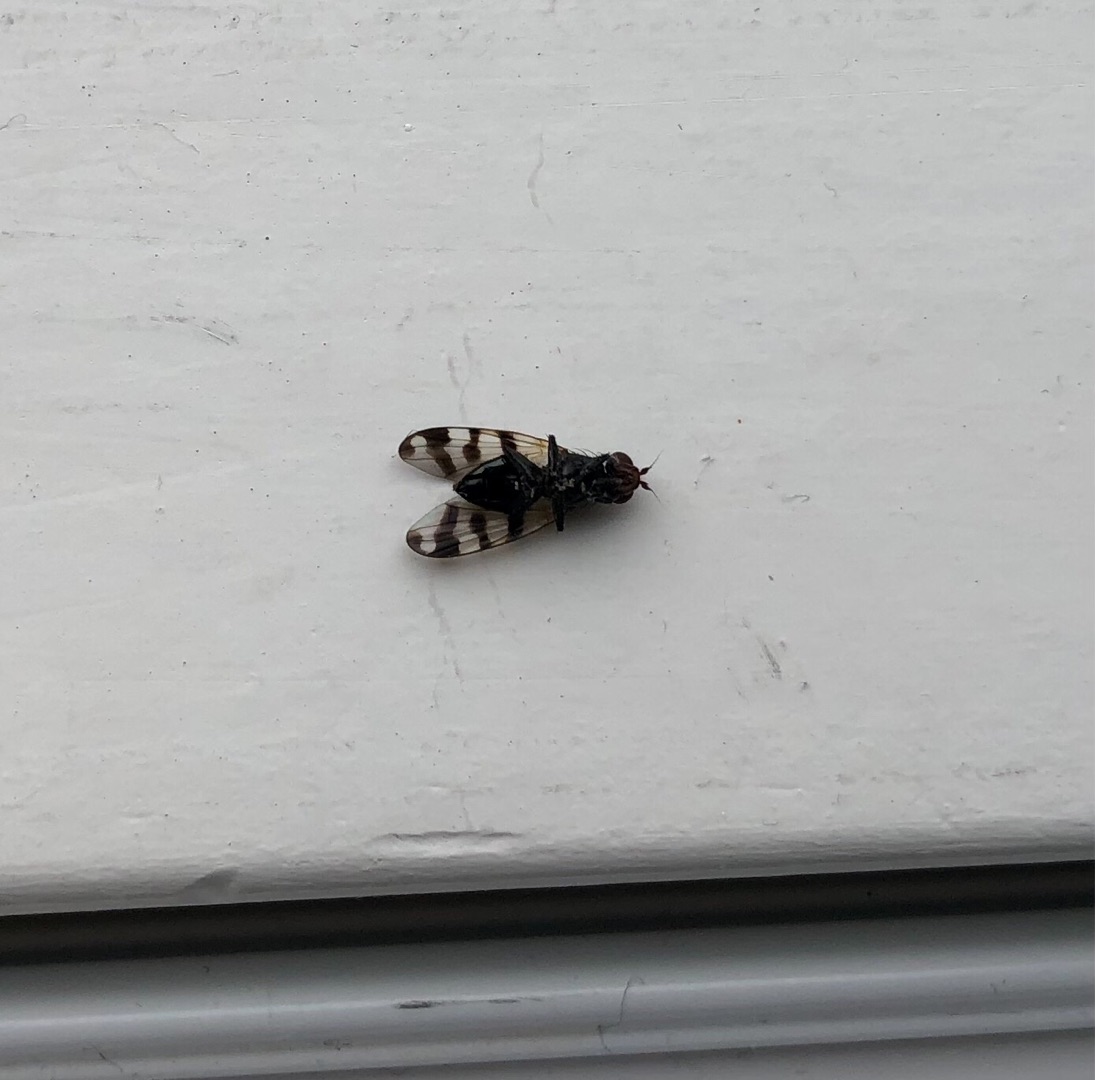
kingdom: Animalia
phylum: Arthropoda
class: Insecta
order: Diptera
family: Ulidiidae
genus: Ceroxys
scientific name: Ceroxys urticae
